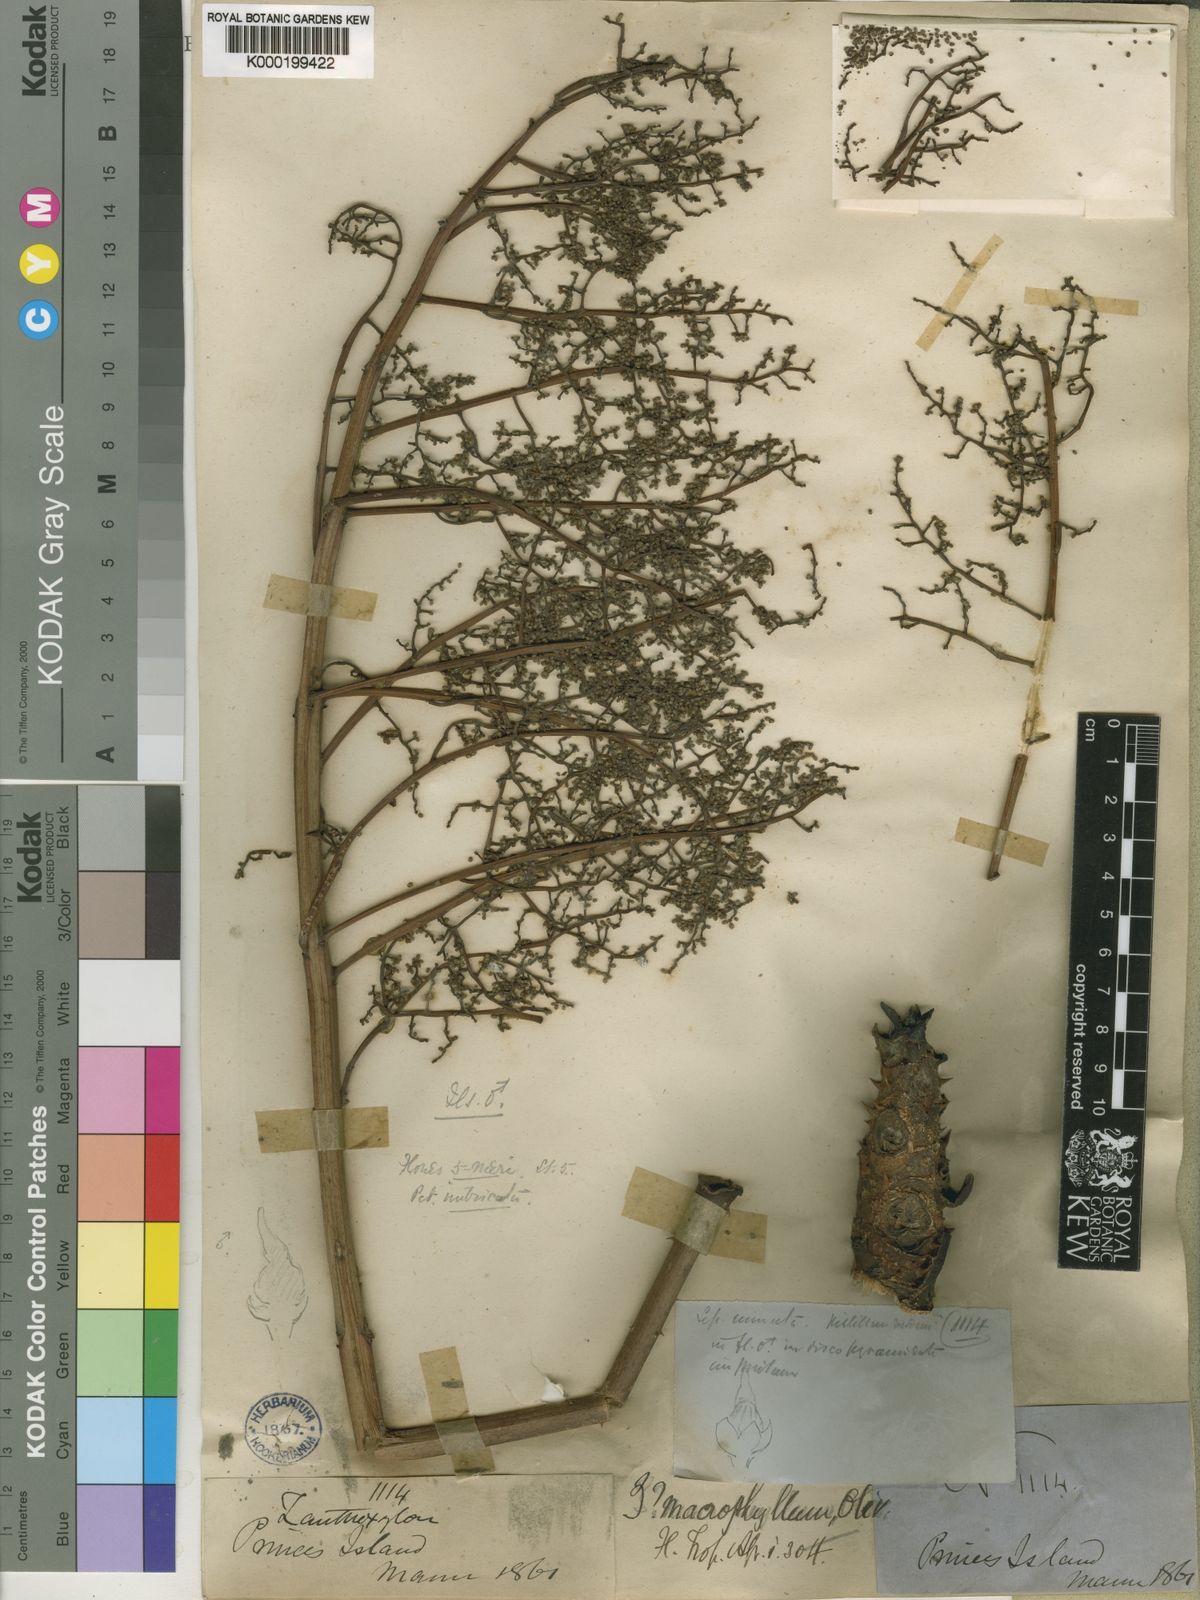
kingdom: Plantae
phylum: Tracheophyta
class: Magnoliopsida
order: Sapindales
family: Rutaceae
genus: Zanthoxylum
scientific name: Zanthoxylum gilletii
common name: African satinwood
